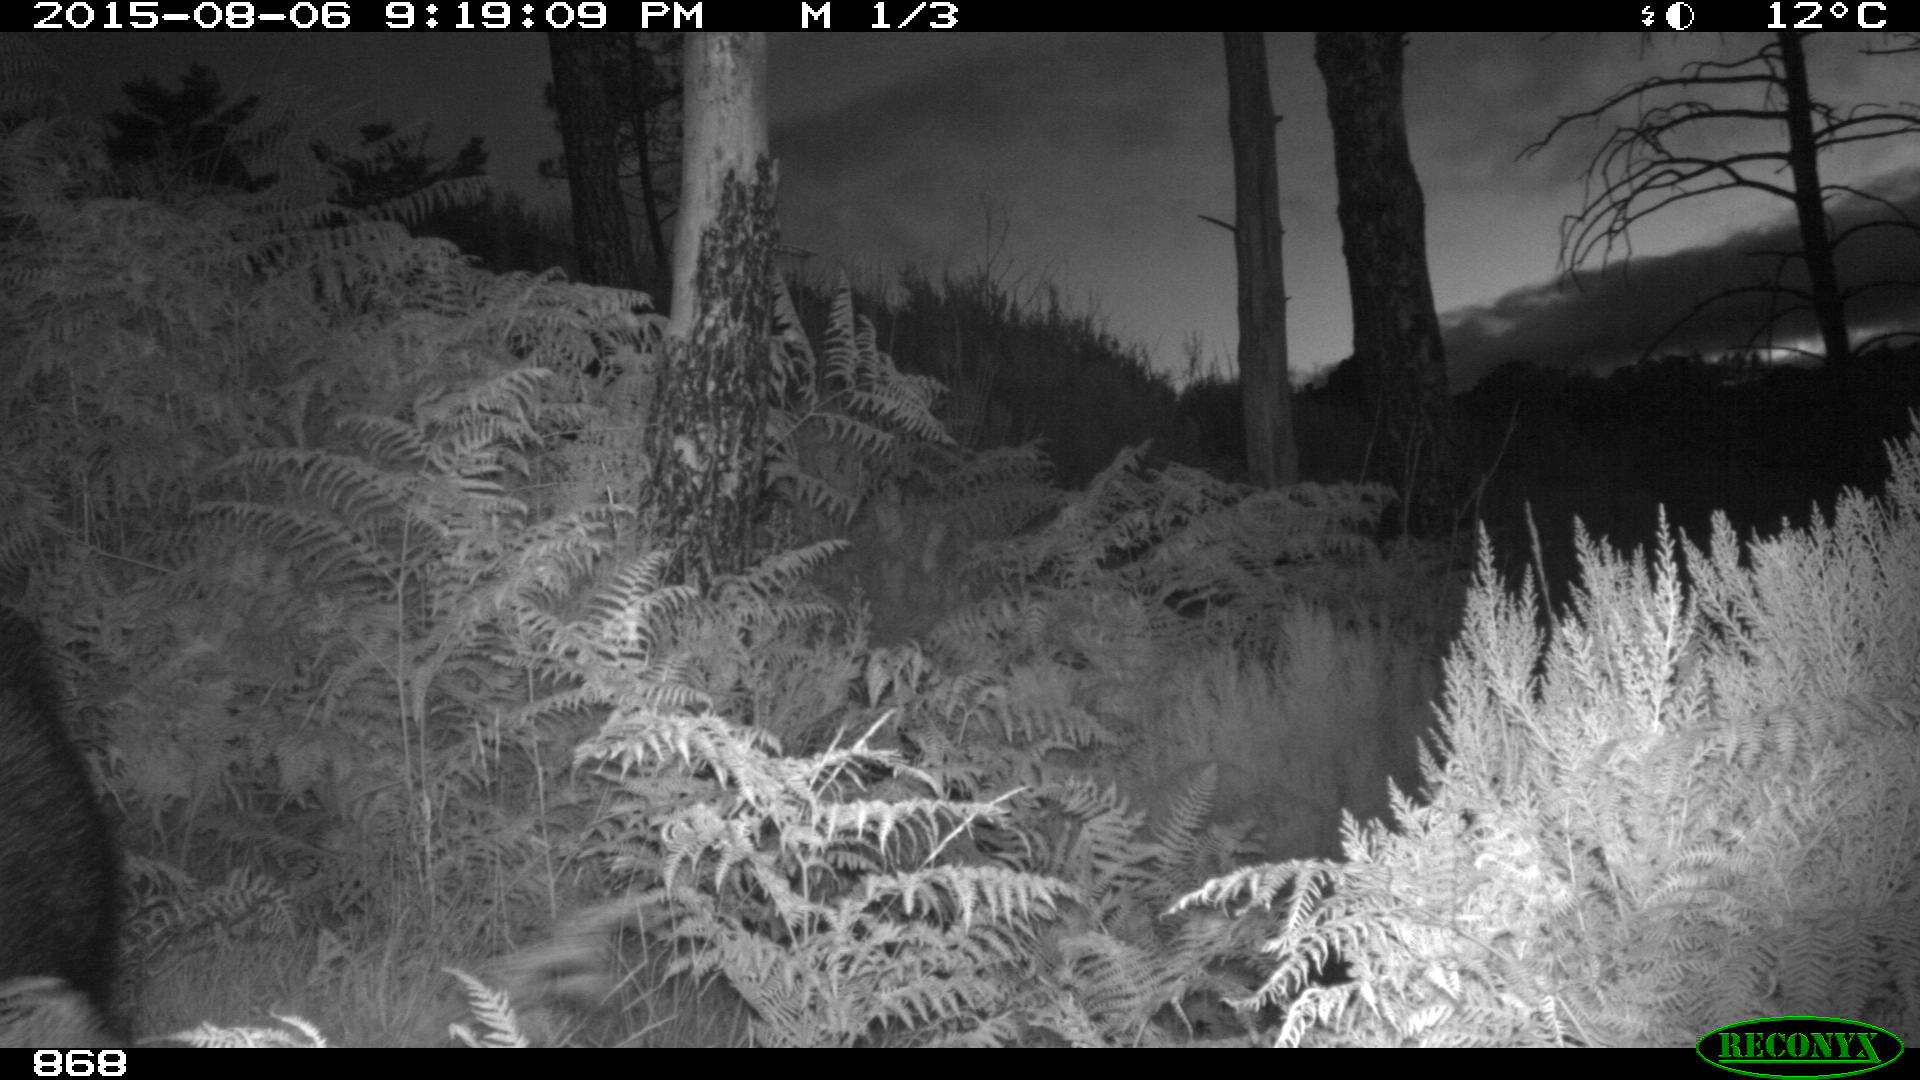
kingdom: Animalia
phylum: Chordata
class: Mammalia
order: Artiodactyla
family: Suidae
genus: Sus
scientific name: Sus scrofa
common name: Wild boar
